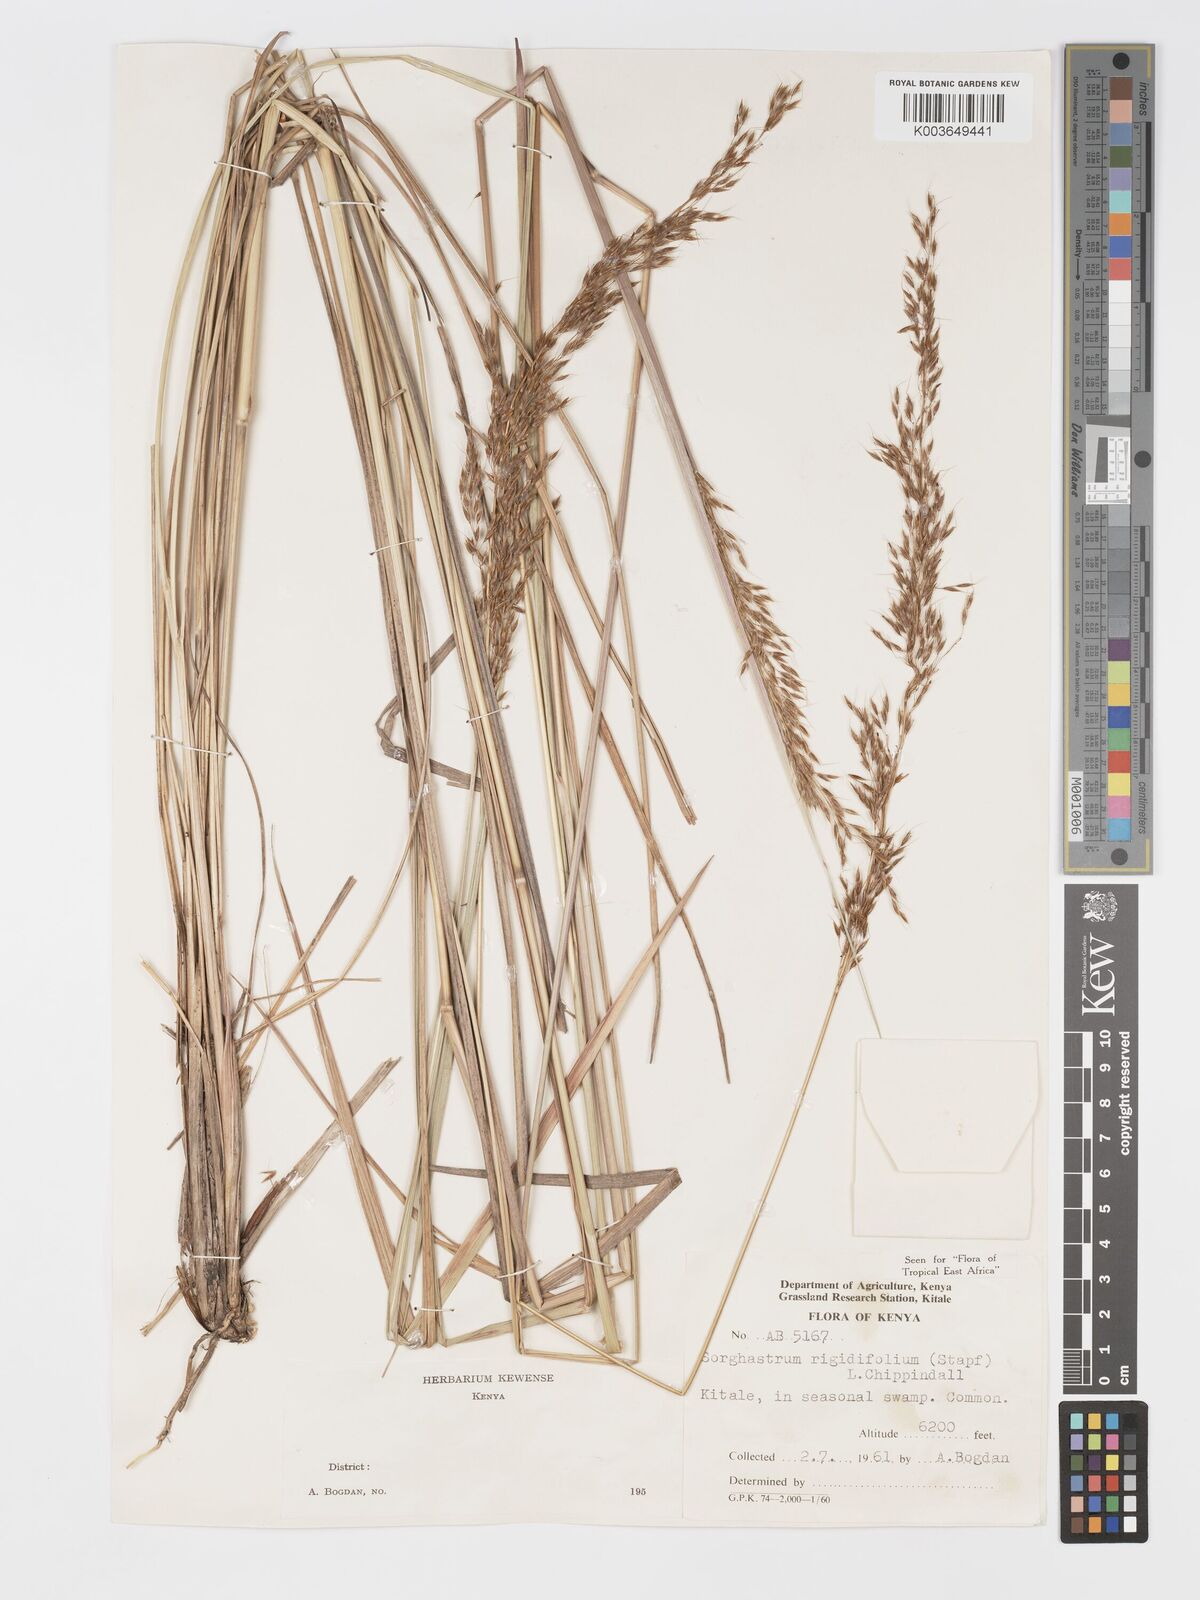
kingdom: Plantae
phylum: Tracheophyta
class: Liliopsida
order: Poales
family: Poaceae
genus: Sorghastrum
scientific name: Sorghastrum stipoides
